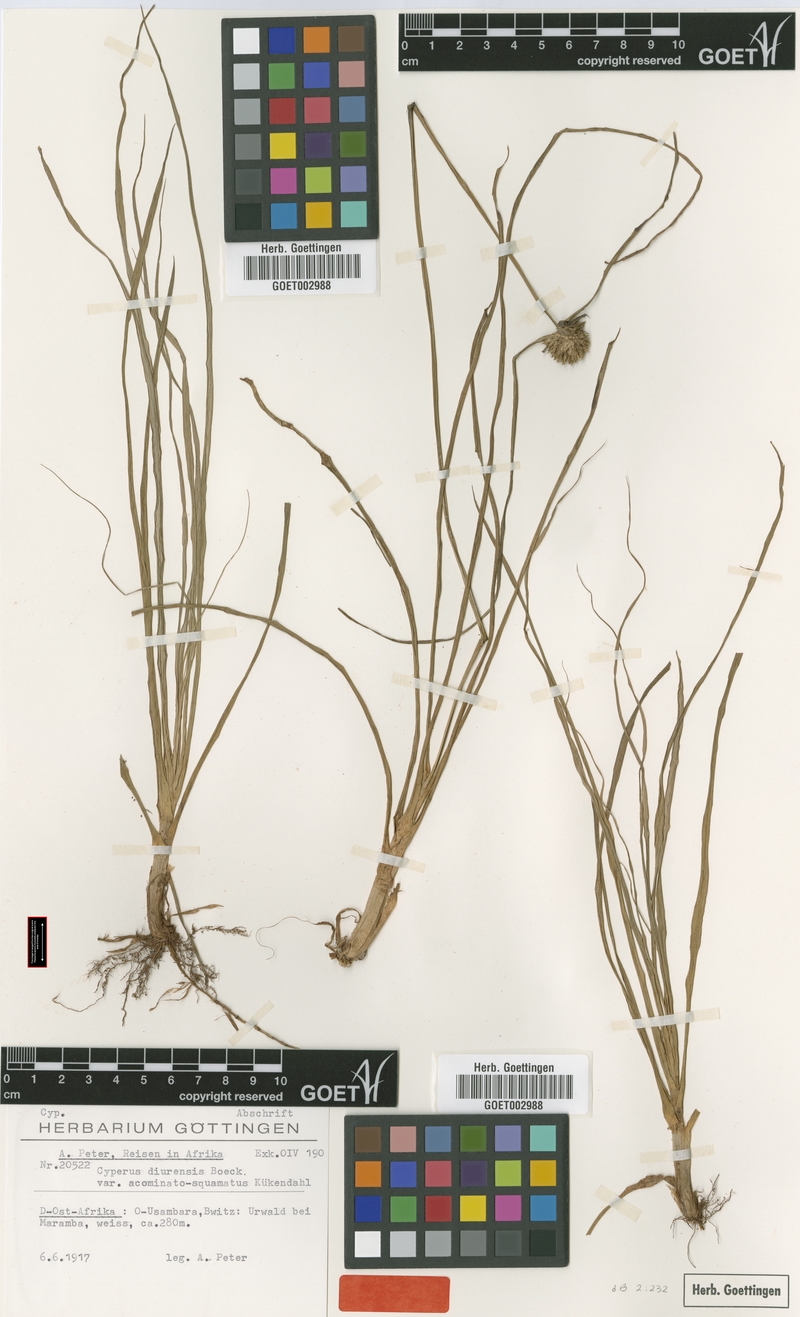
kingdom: Plantae
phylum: Tracheophyta
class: Liliopsida
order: Poales
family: Cyperaceae
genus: Cyperus
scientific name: Cyperus diurensis
